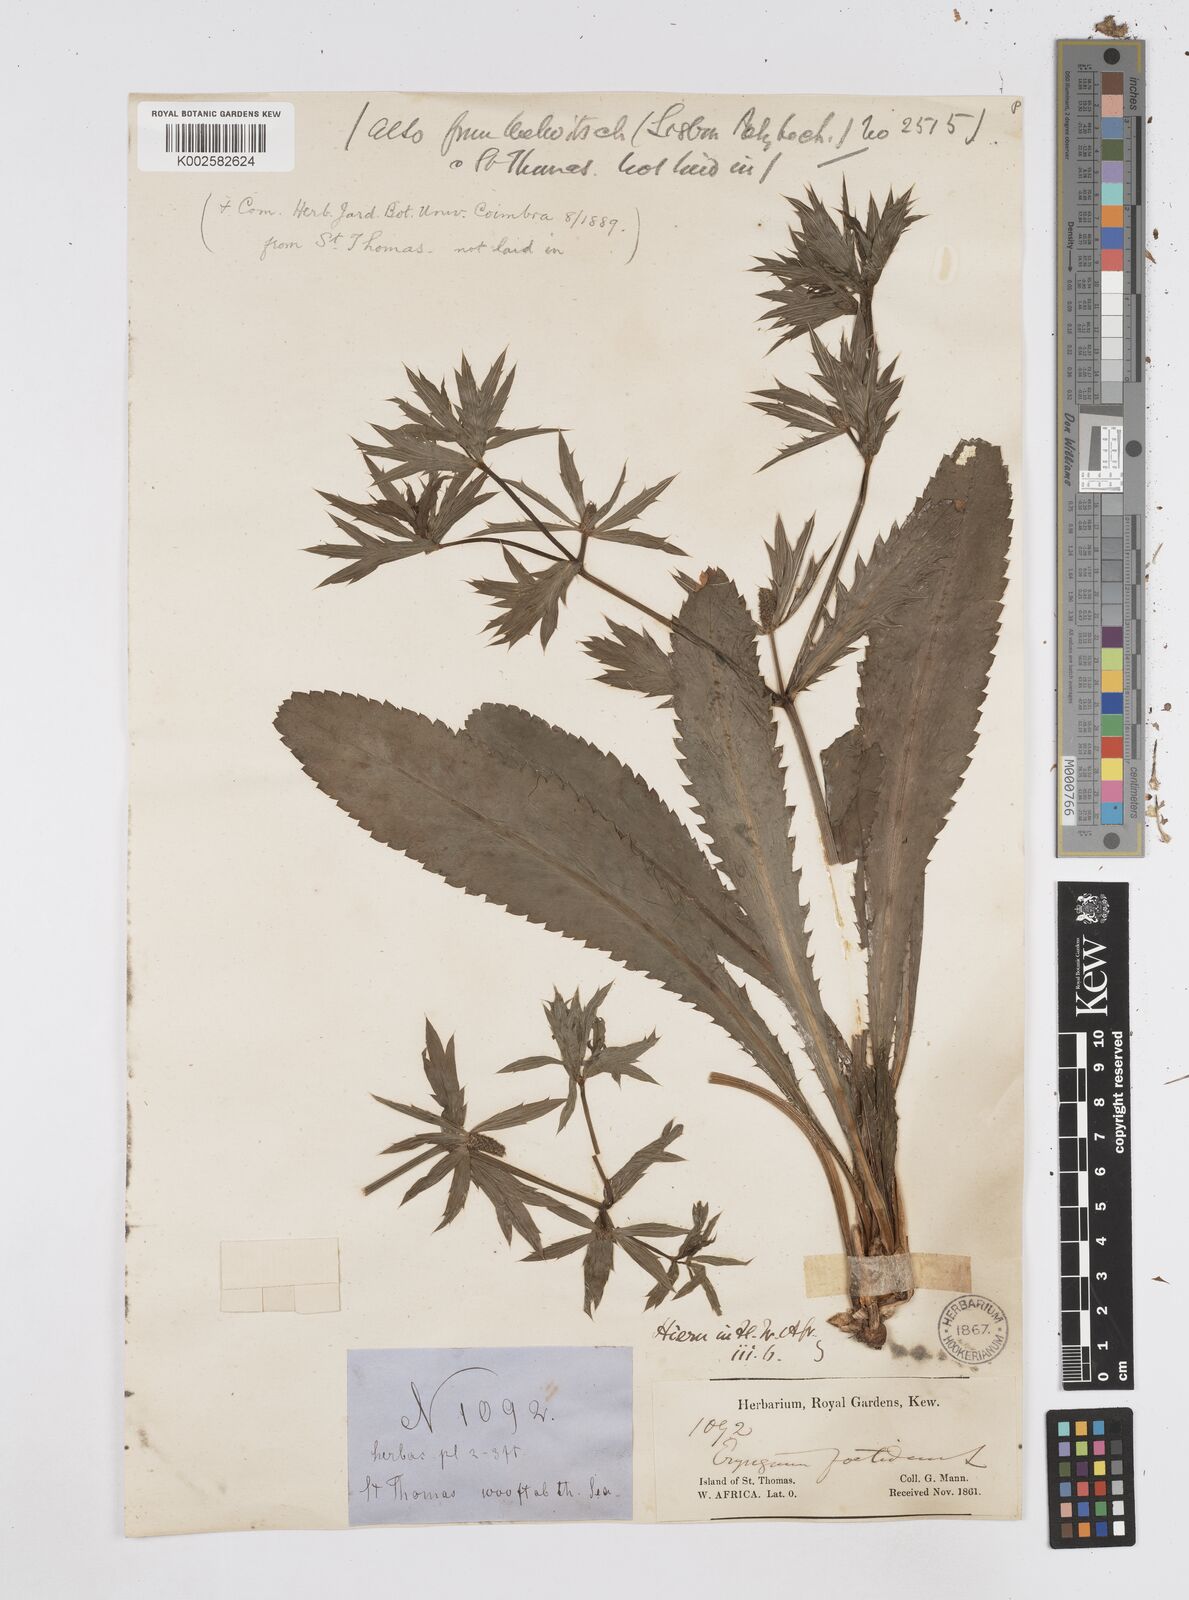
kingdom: Plantae
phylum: Tracheophyta
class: Magnoliopsida
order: Apiales
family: Apiaceae
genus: Eryngium
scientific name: Eryngium foetidum
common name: Fitweed
